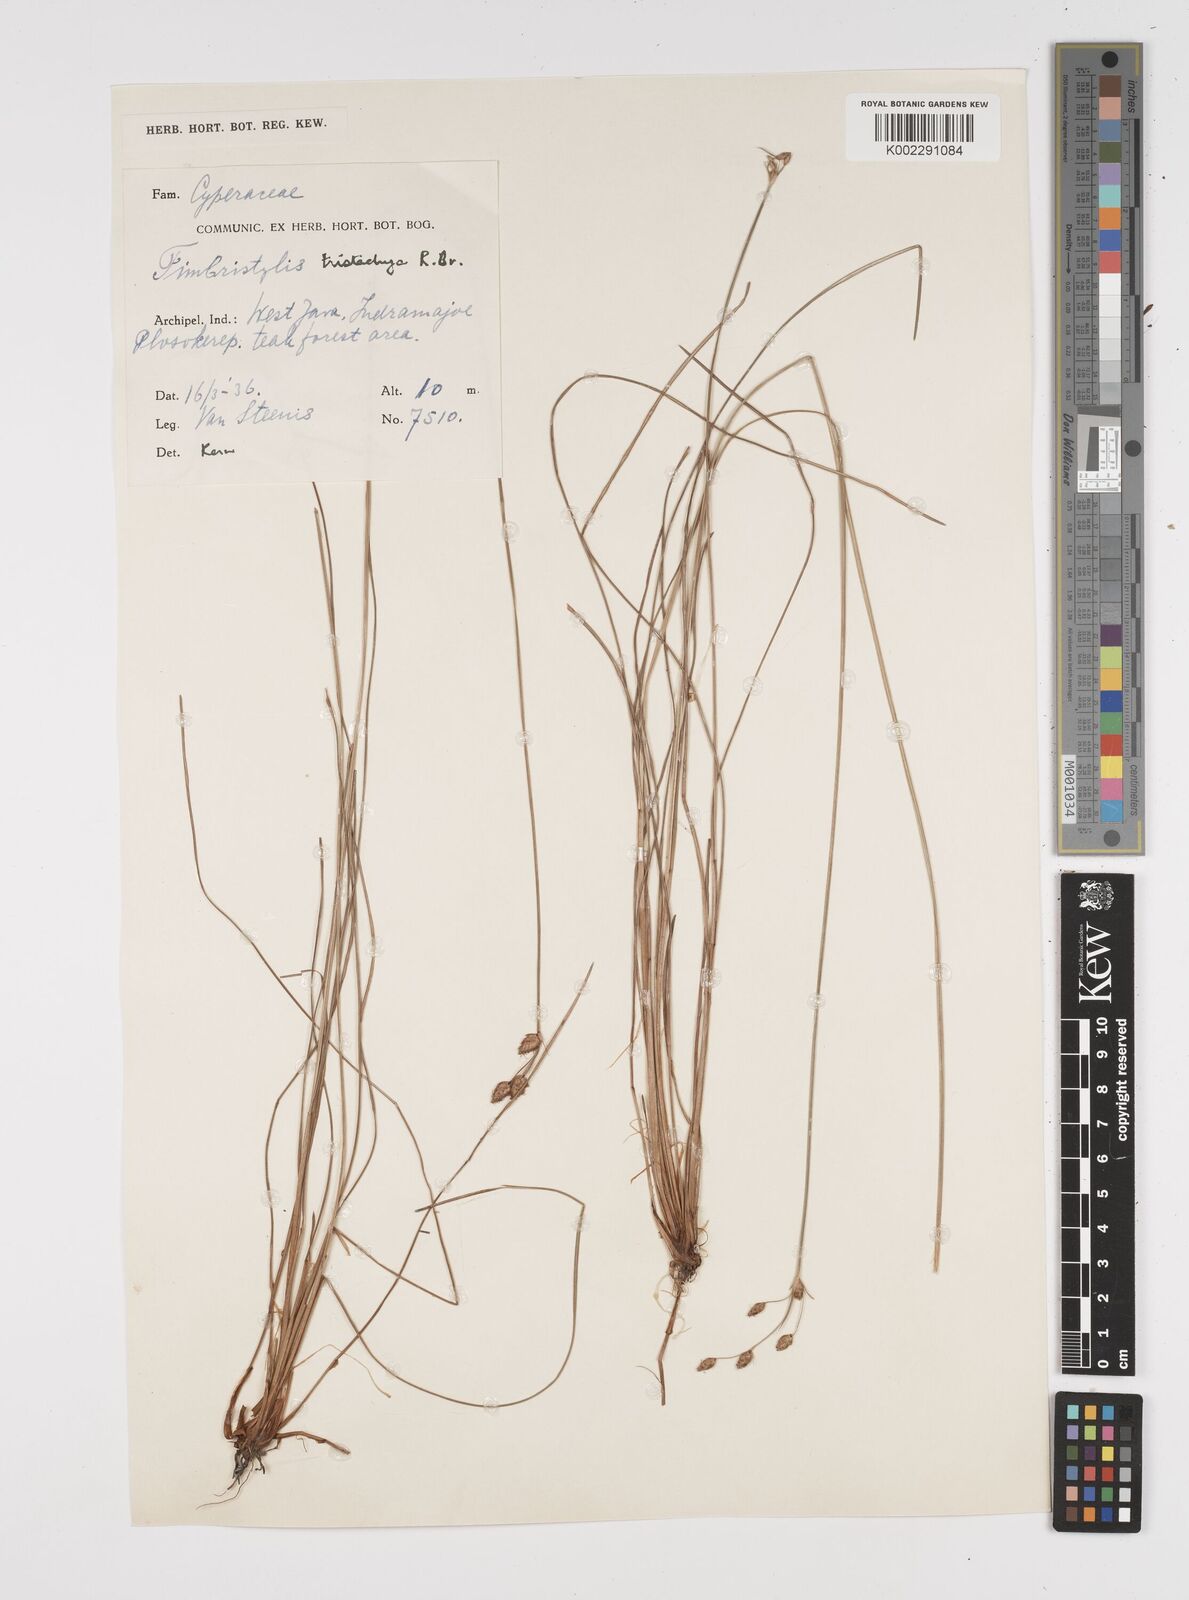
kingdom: Plantae
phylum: Tracheophyta
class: Liliopsida
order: Poales
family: Cyperaceae
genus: Fimbristylis
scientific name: Fimbristylis tristachya
